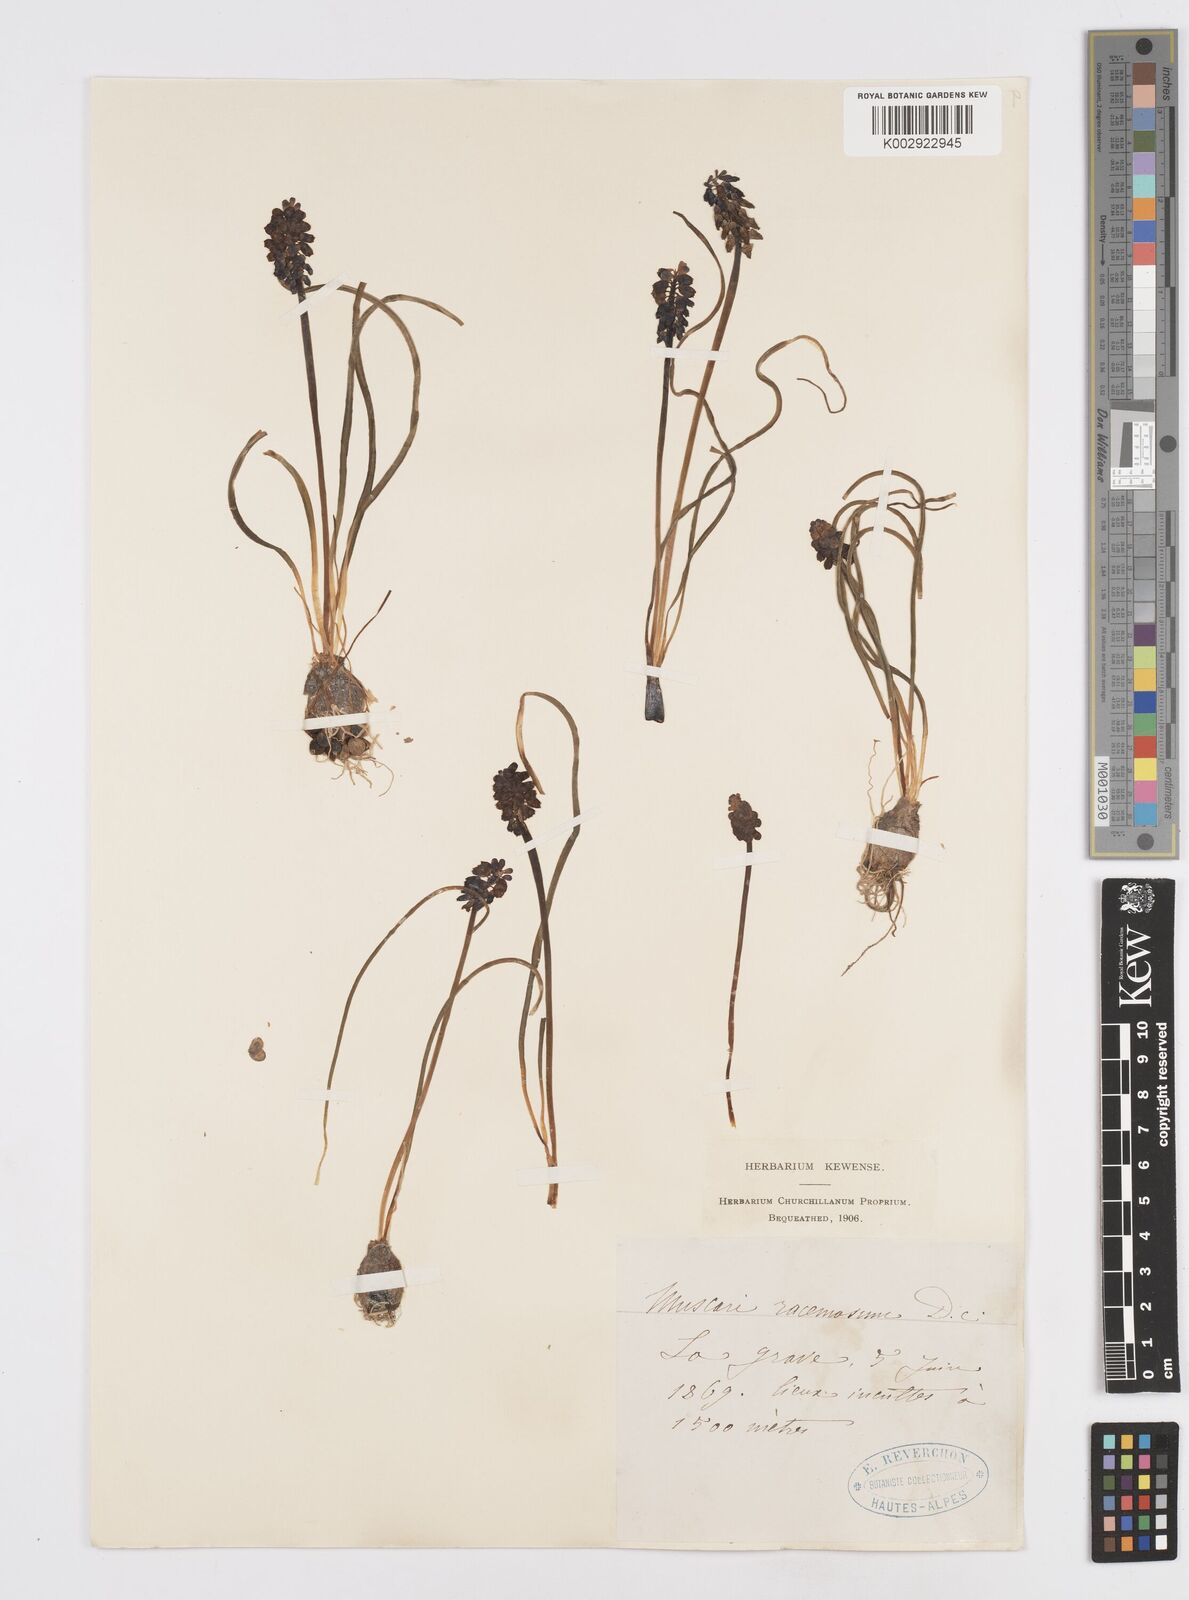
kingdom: Plantae
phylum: Tracheophyta
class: Liliopsida
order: Asparagales
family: Asparagaceae
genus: Muscari
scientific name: Muscari neglectum
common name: Grape-hyacinth
